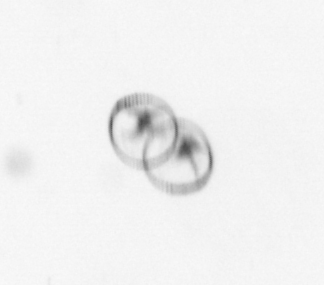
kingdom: Chromista
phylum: Myzozoa
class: Dinophyceae
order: Noctilucales
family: Noctilucaceae
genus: Noctiluca
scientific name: Noctiluca scintillans
